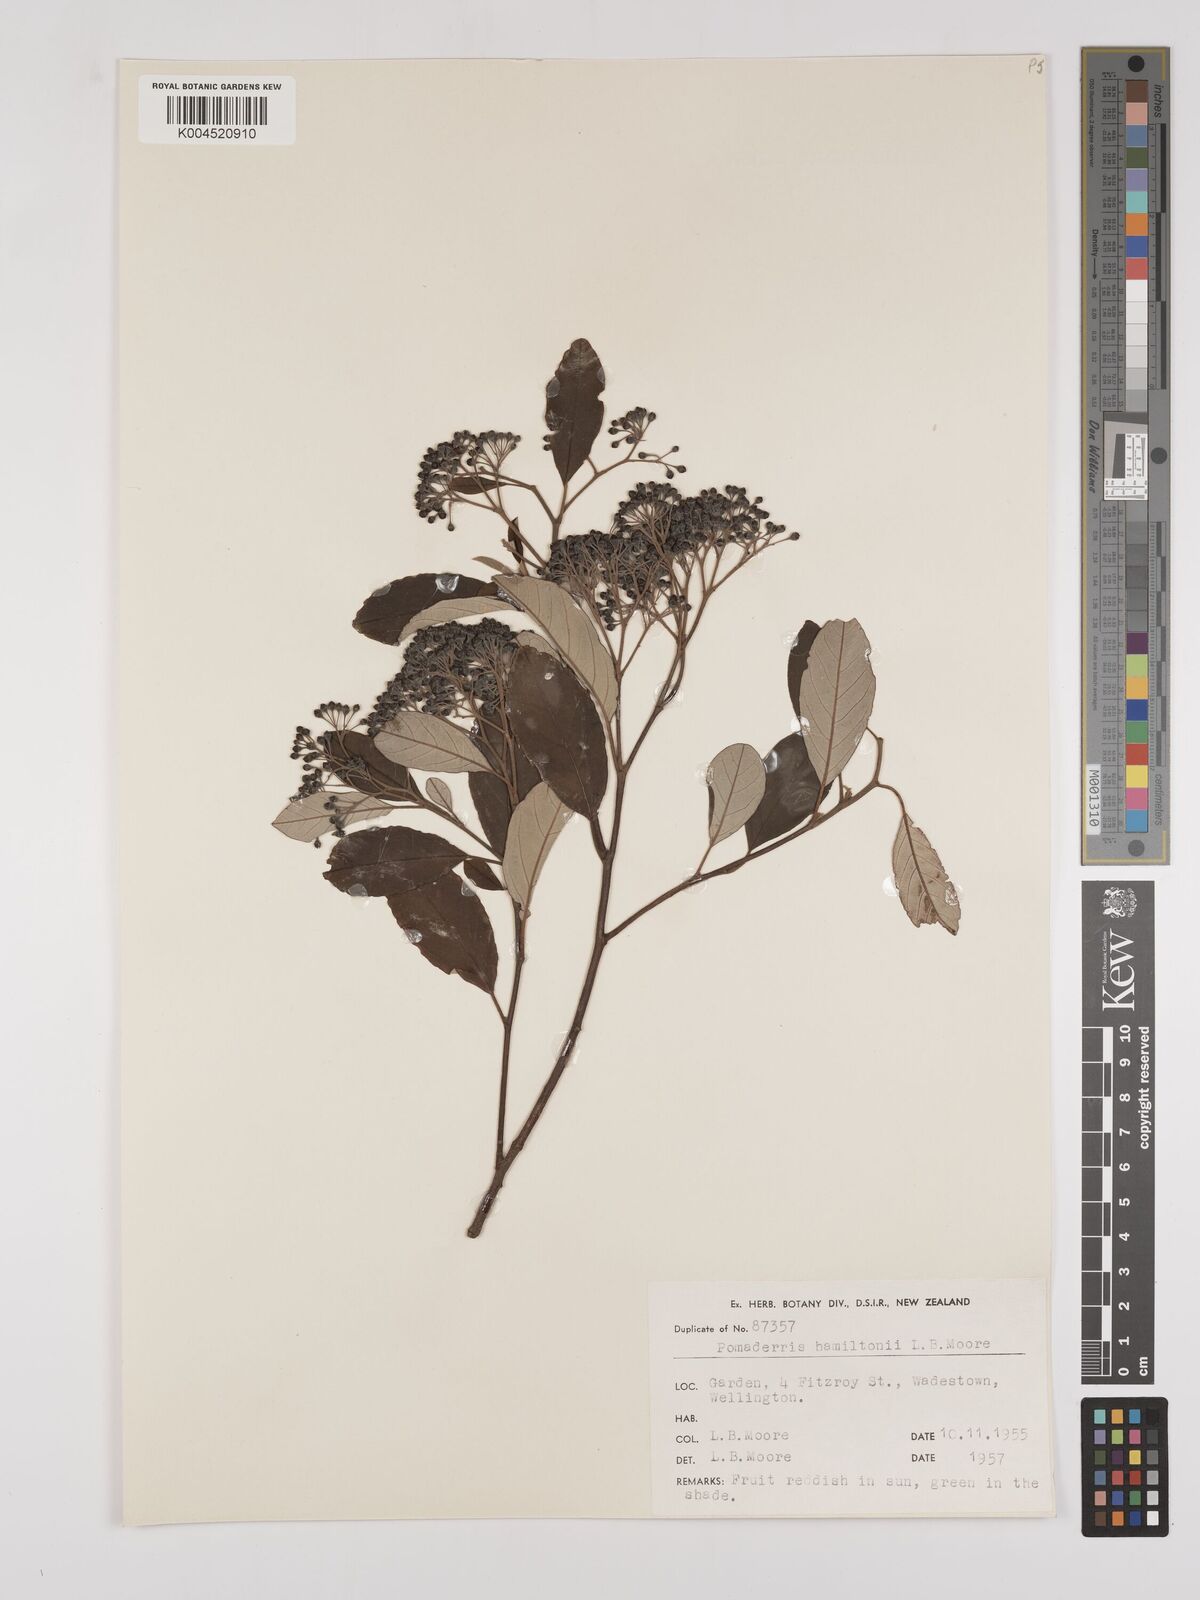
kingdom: Plantae
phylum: Tracheophyta
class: Magnoliopsida
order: Rosales
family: Rhamnaceae
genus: Pomaderris
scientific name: Pomaderris hamiltonii
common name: Pale-flowered kumarahou
